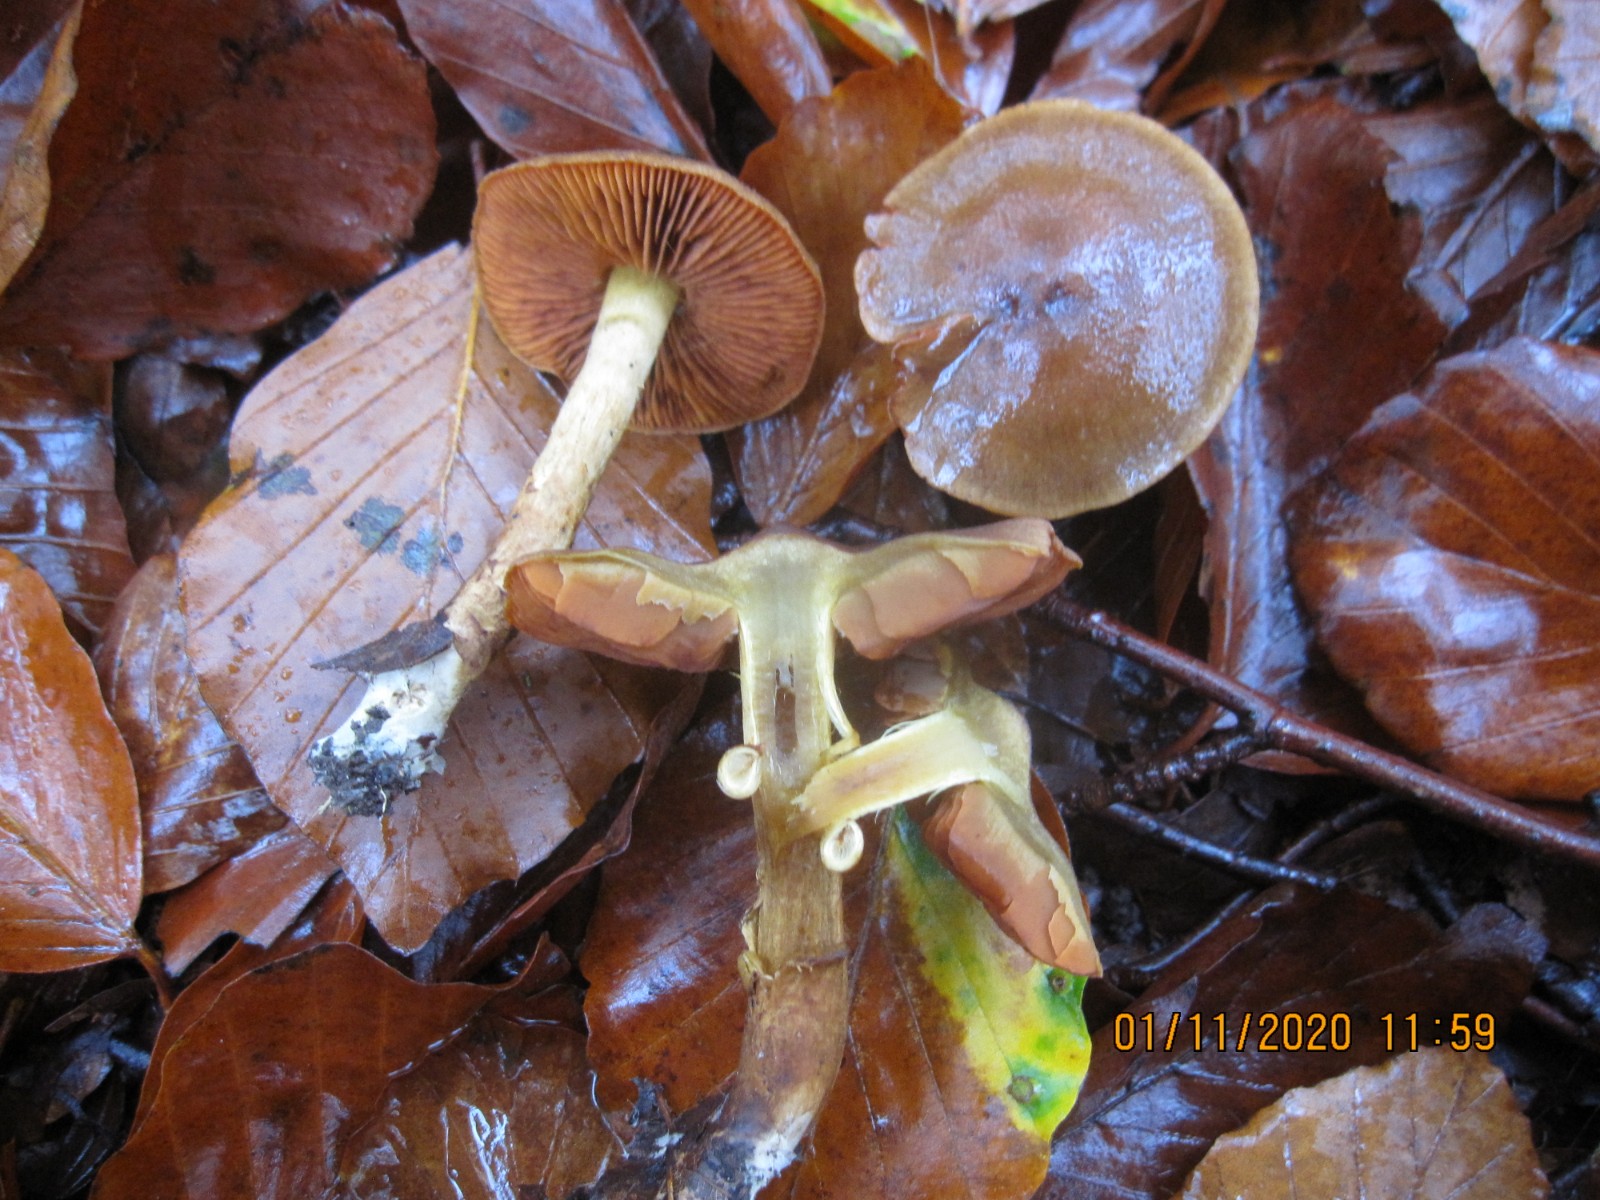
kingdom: Fungi
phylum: Basidiomycota
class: Agaricomycetes
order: Agaricales
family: Cortinariaceae
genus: Cortinarius
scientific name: Cortinarius malicorius
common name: grønkødet slørhat
